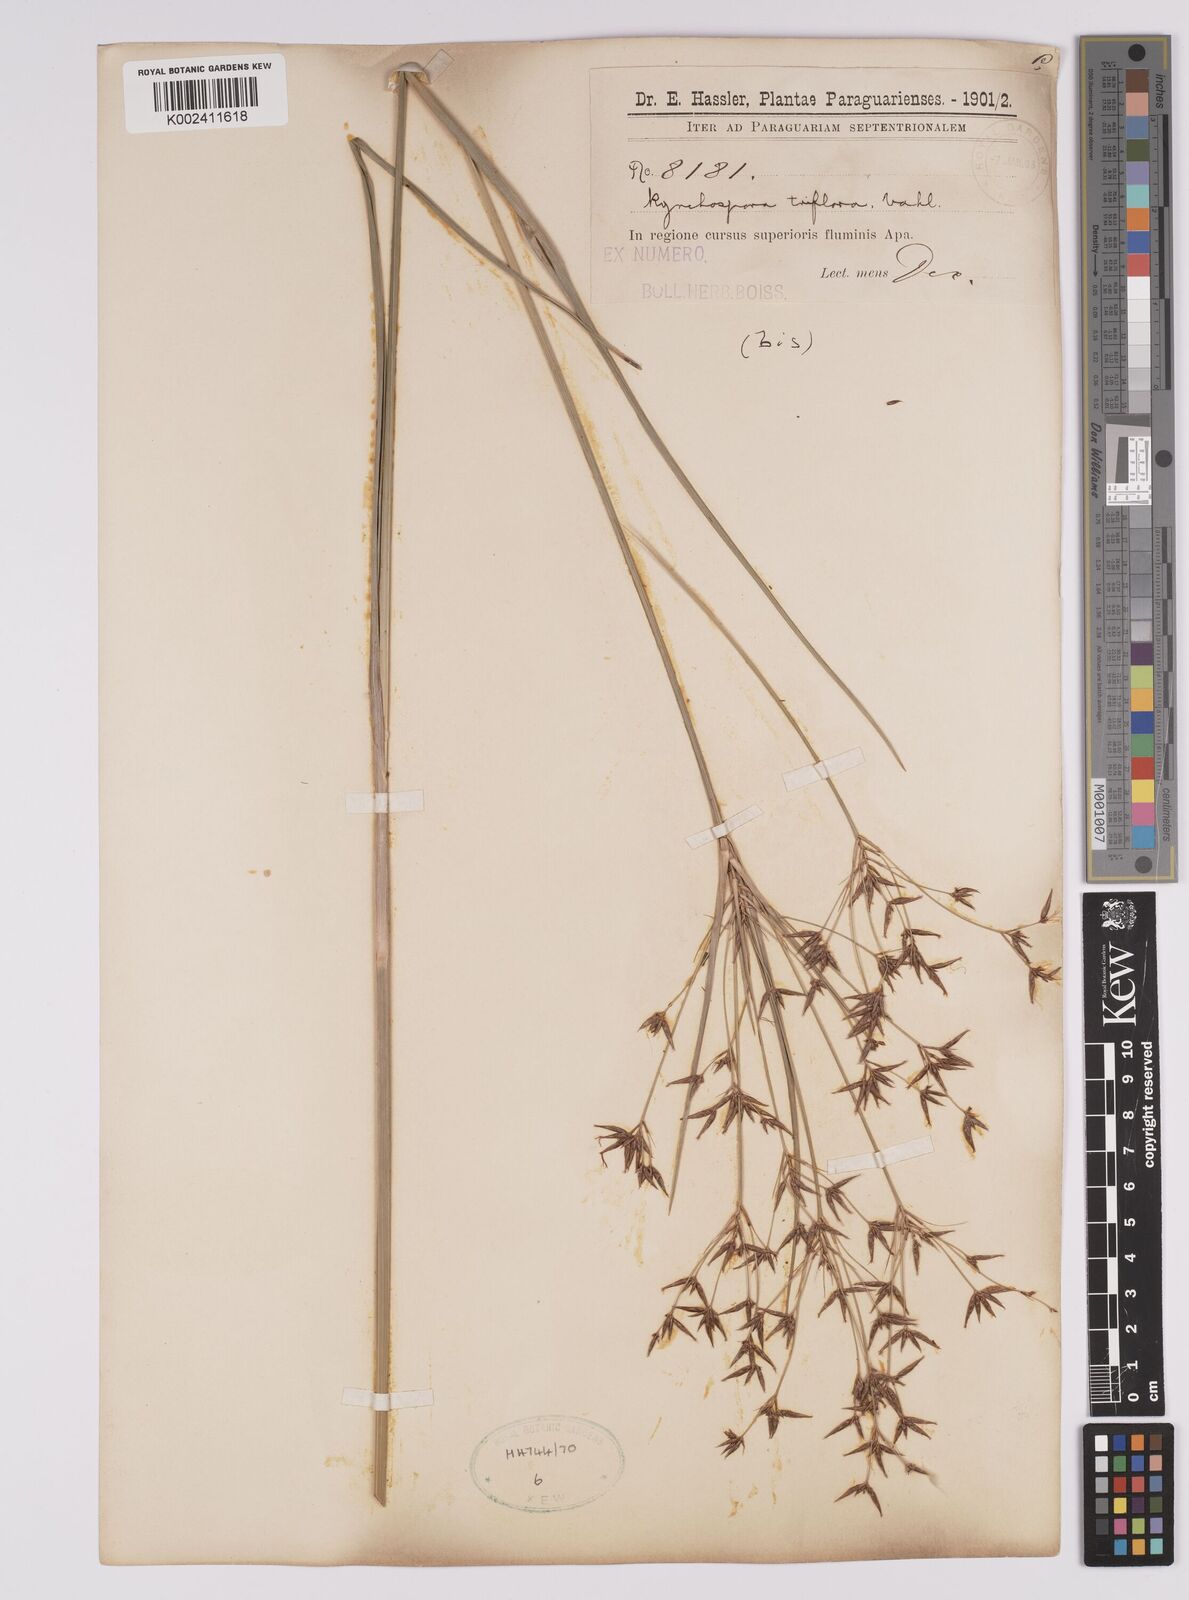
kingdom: Plantae
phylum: Tracheophyta
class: Liliopsida
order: Poales
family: Cyperaceae
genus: Rhynchospora
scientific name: Rhynchospora triflora
